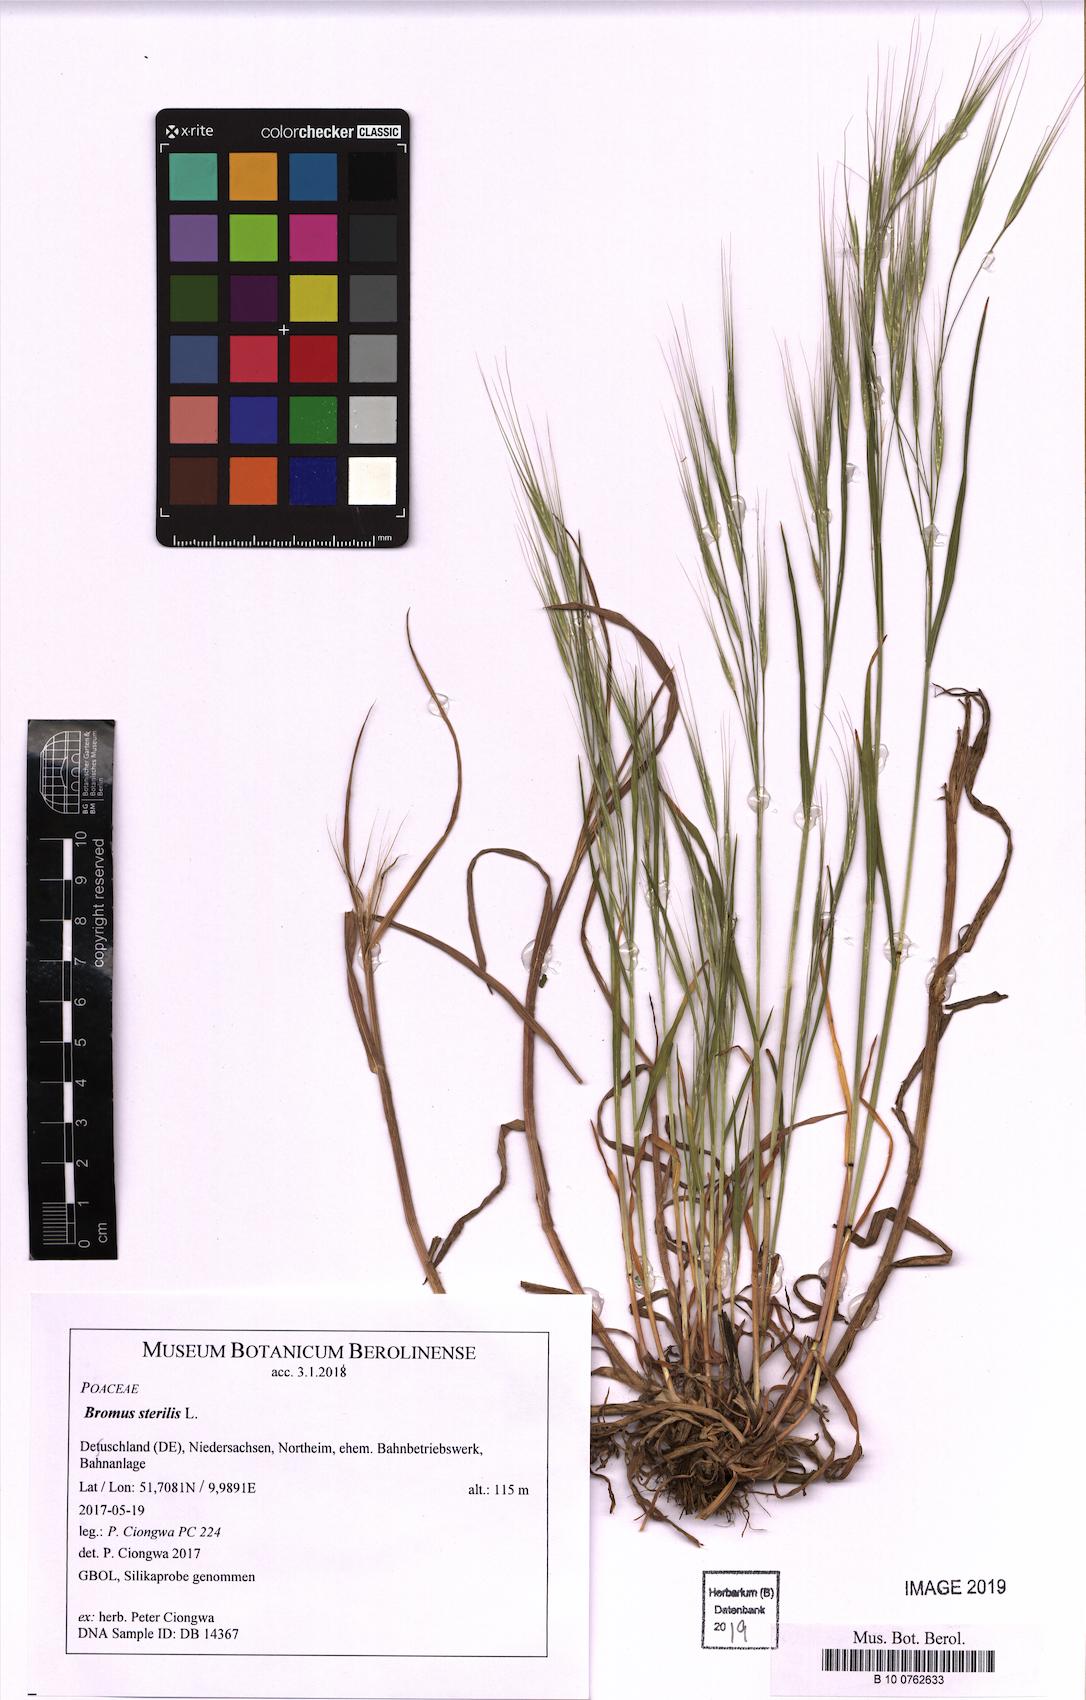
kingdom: Plantae
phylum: Tracheophyta
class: Liliopsida
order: Poales
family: Poaceae
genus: Bromus
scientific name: Bromus sterilis
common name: Poverty brome
